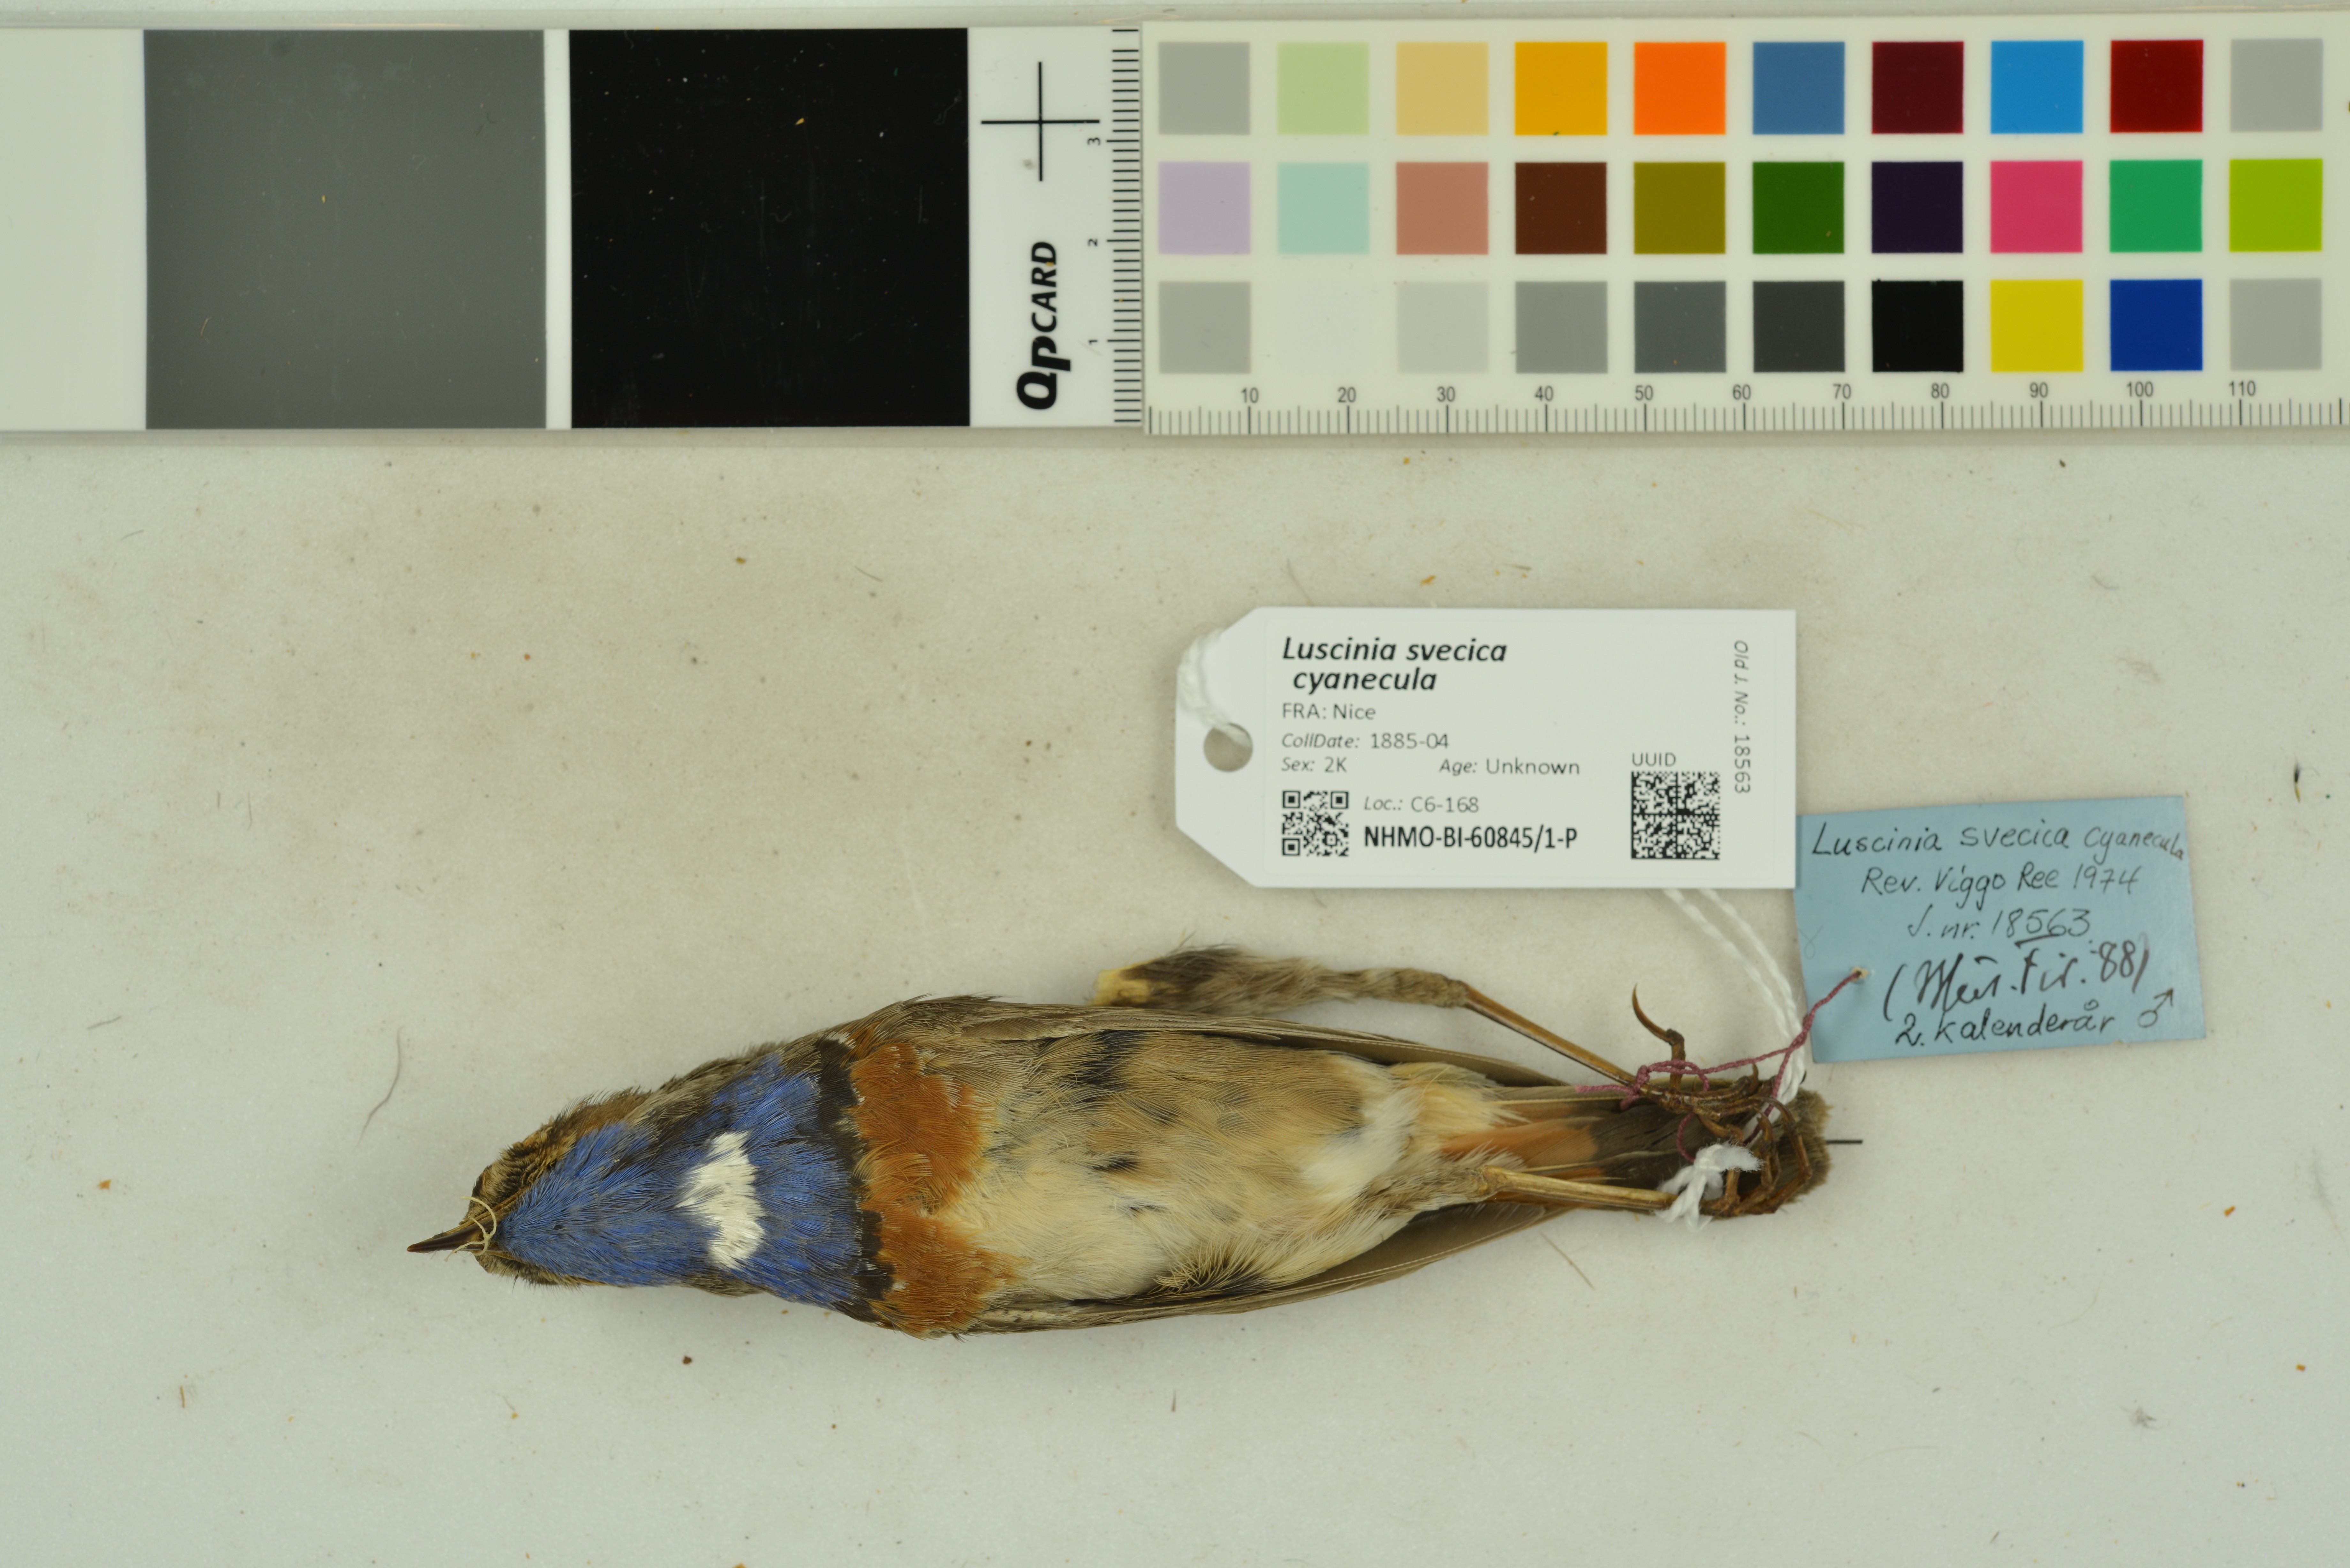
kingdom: Animalia
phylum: Chordata
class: Aves
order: Passeriformes
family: Muscicapidae
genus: Luscinia
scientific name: Luscinia svecica
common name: Bluethroat
